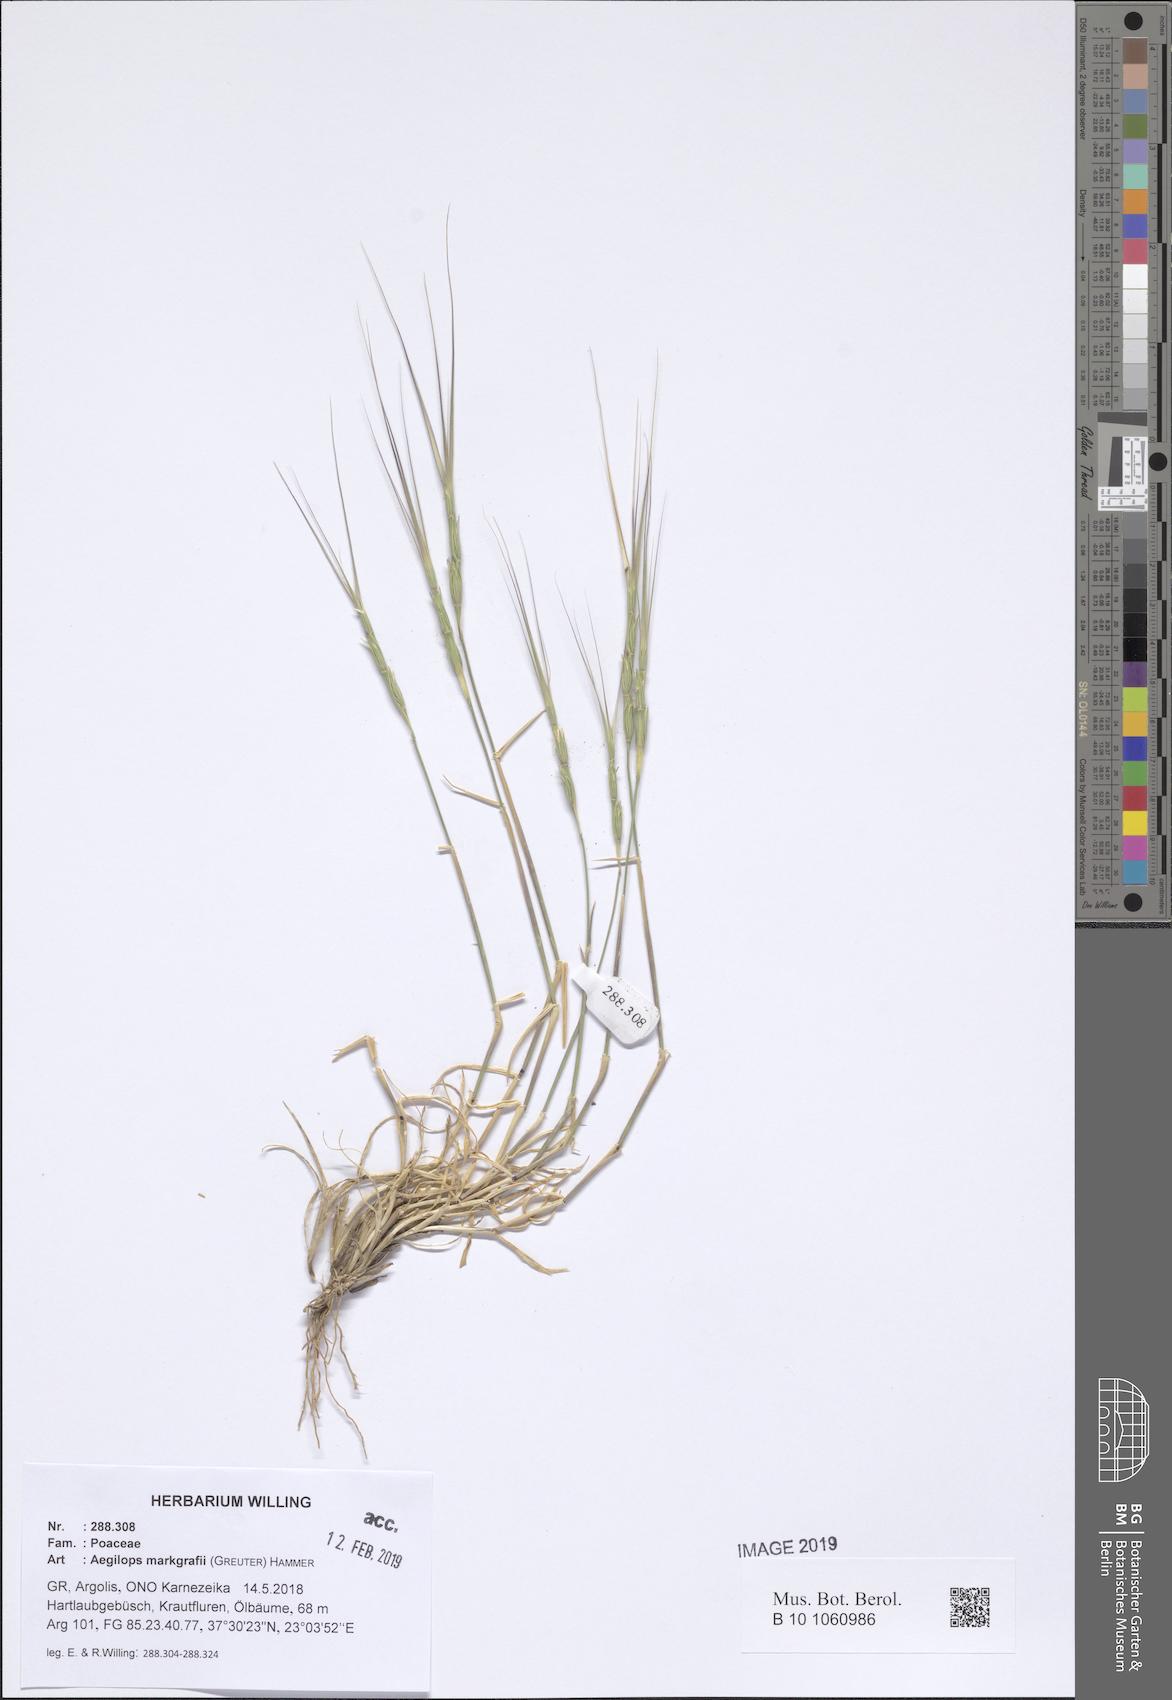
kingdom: Plantae
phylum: Tracheophyta
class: Liliopsida
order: Poales
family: Poaceae
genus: Aegilops
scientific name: Aegilops caudata
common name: Cretan hard-grass
